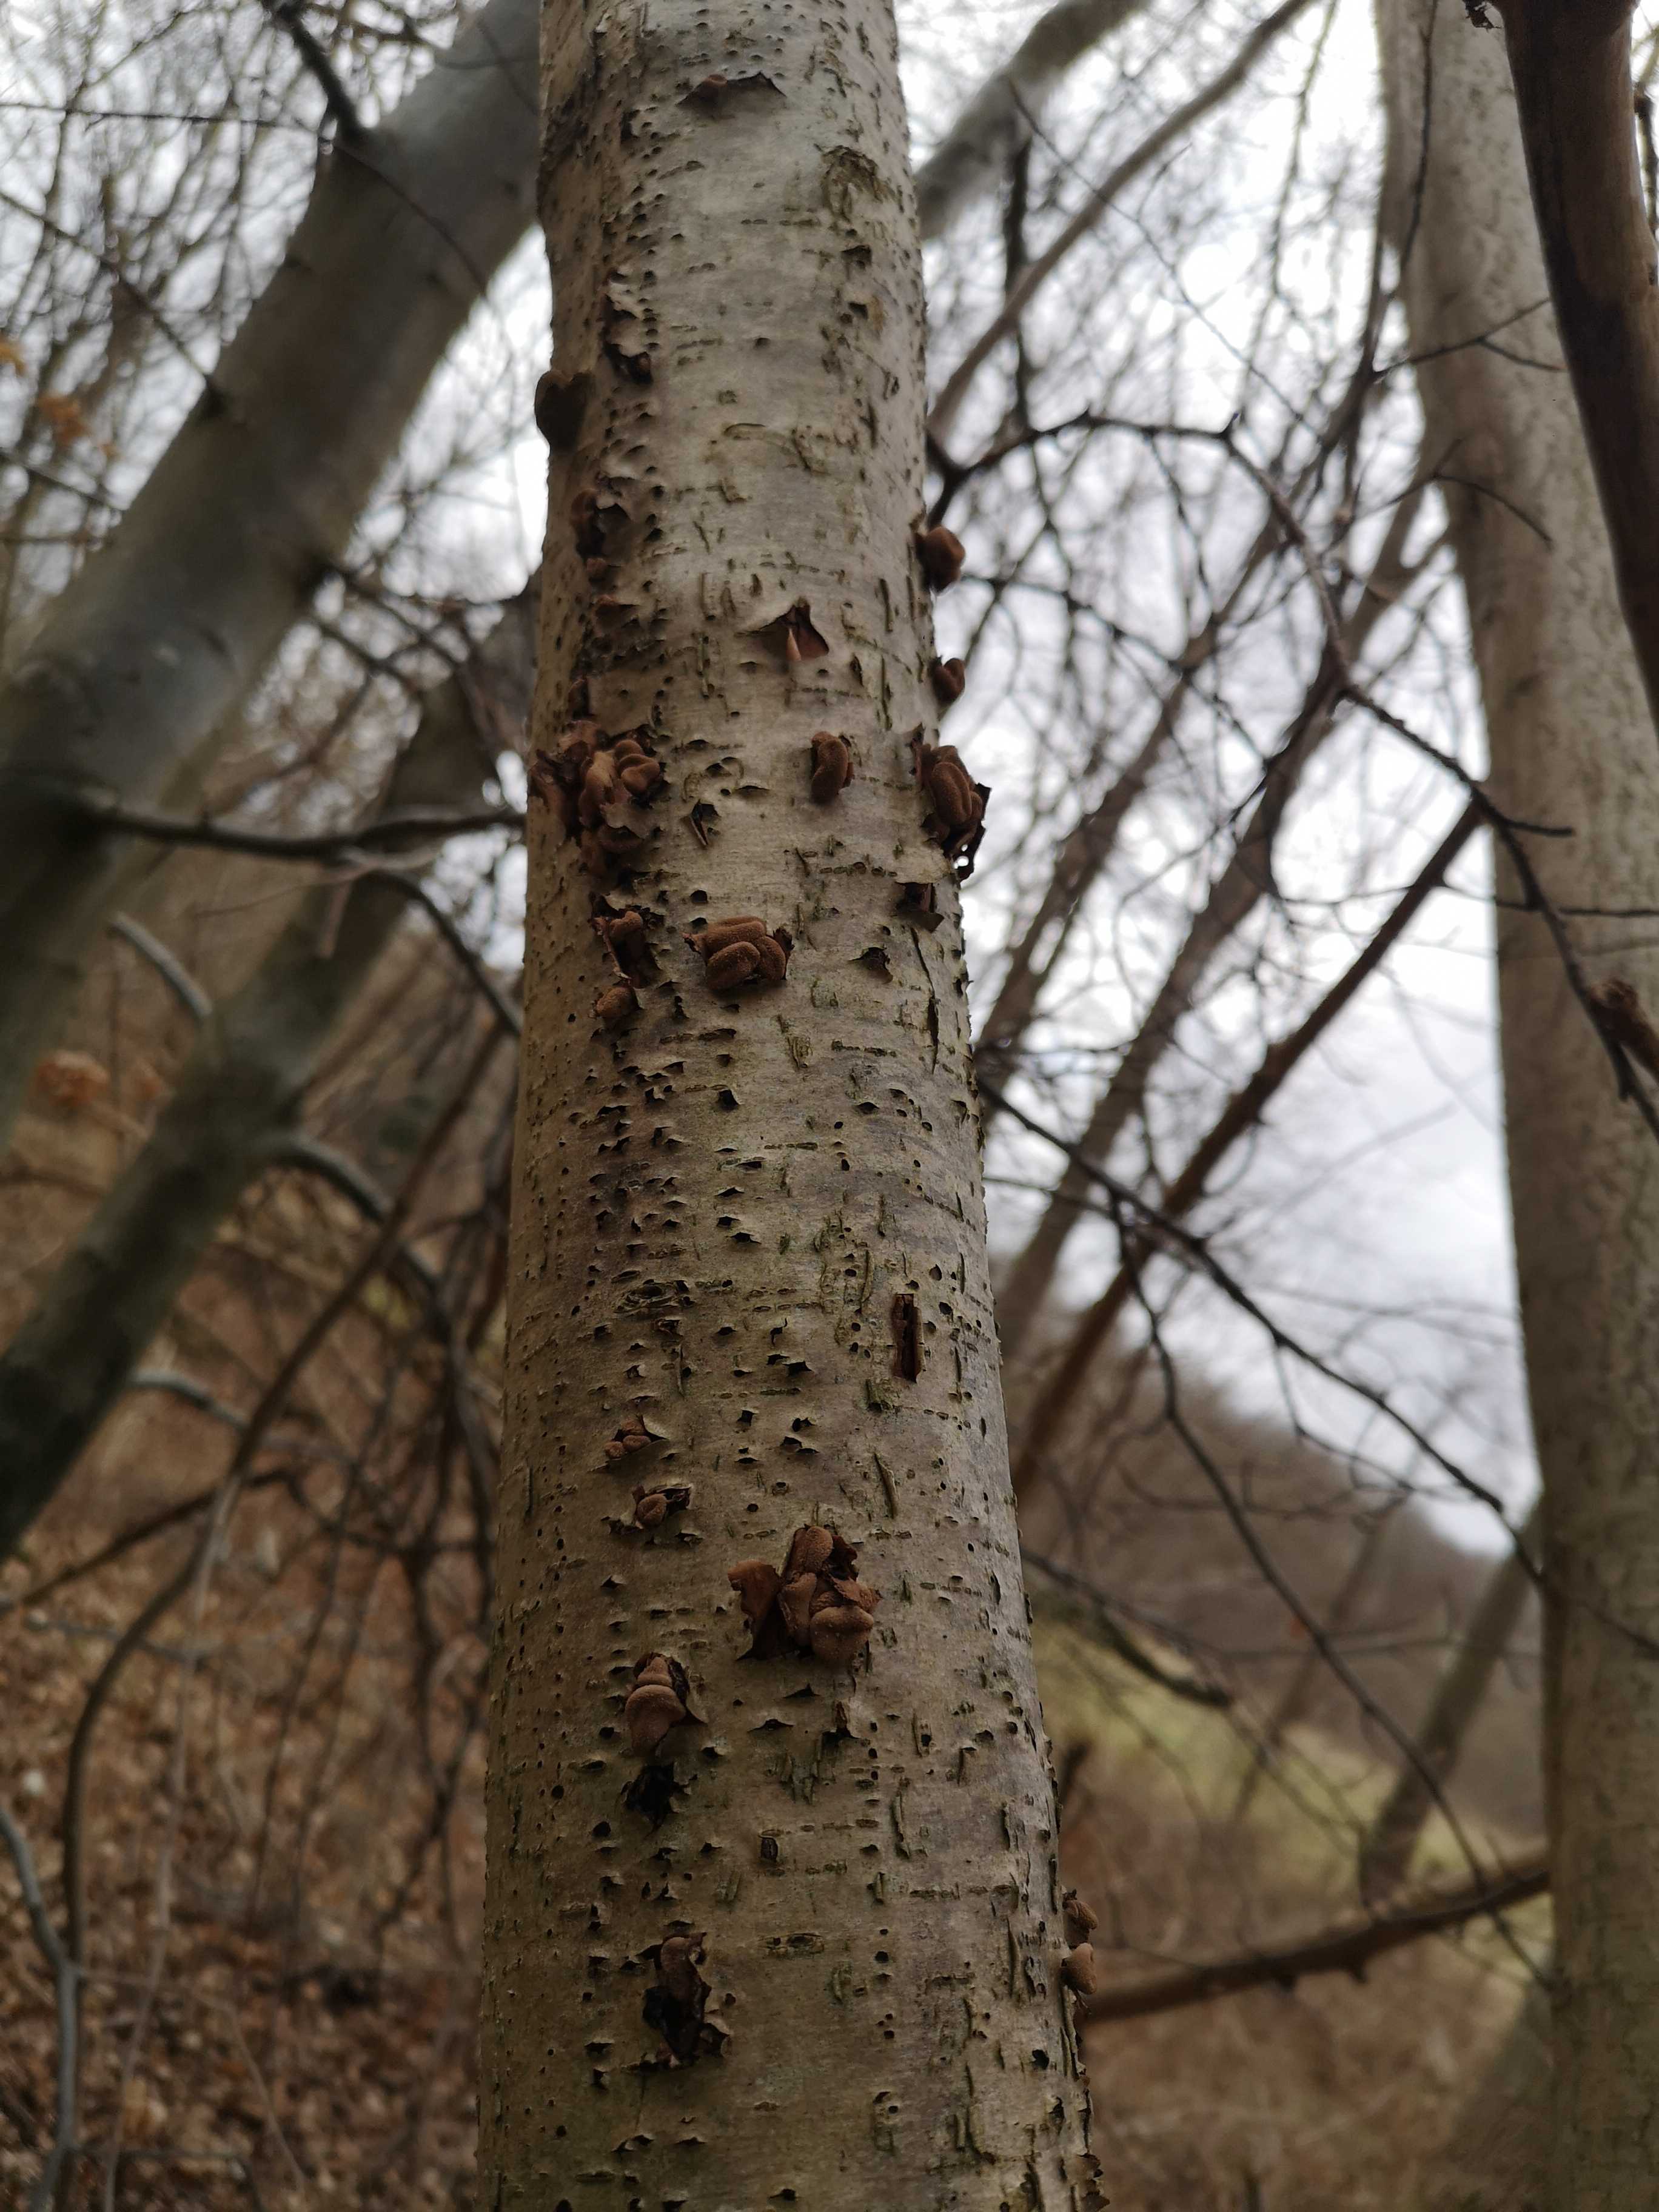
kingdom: Fungi
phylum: Ascomycota
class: Leotiomycetes
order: Helotiales
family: Cenangiaceae
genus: Encoelia
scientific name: Encoelia furfuracea
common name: hassel-læderskive
